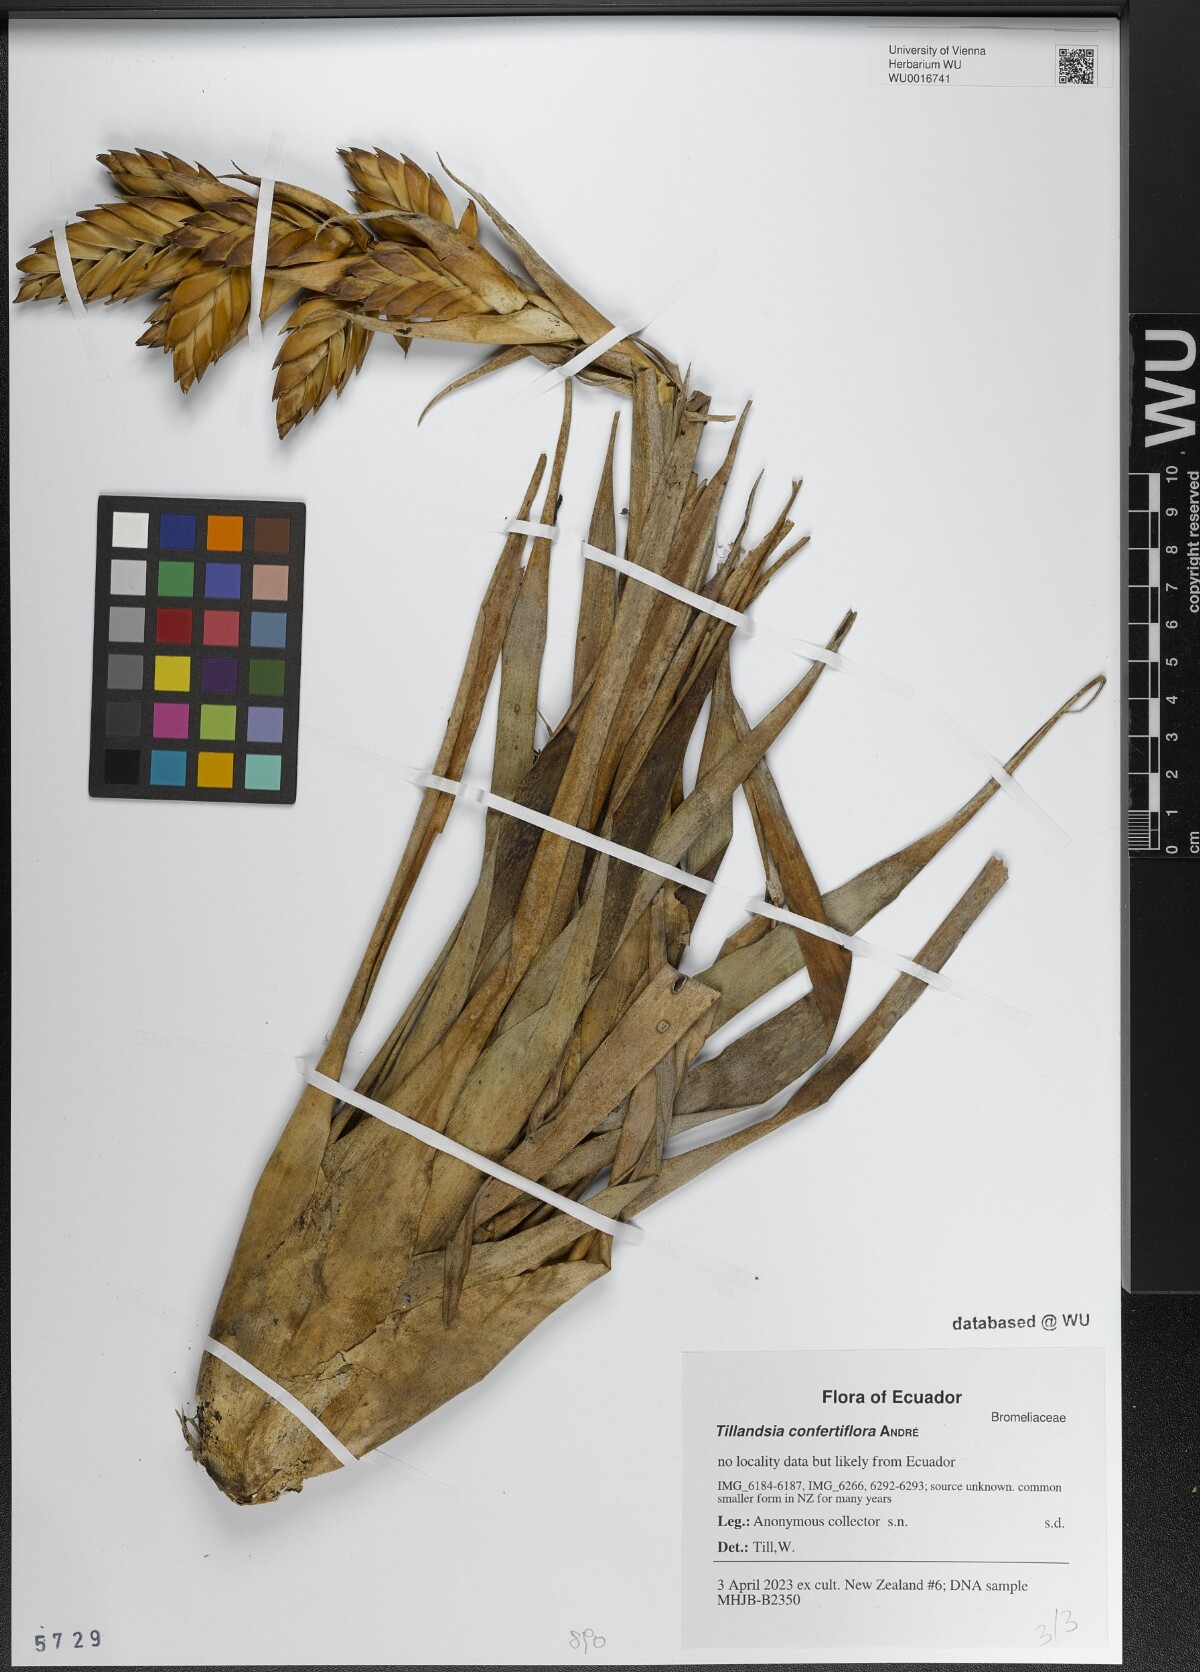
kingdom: Plantae
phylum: Tracheophyta
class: Liliopsida
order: Poales
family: Bromeliaceae
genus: Tillandsia
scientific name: Tillandsia confertiflora
